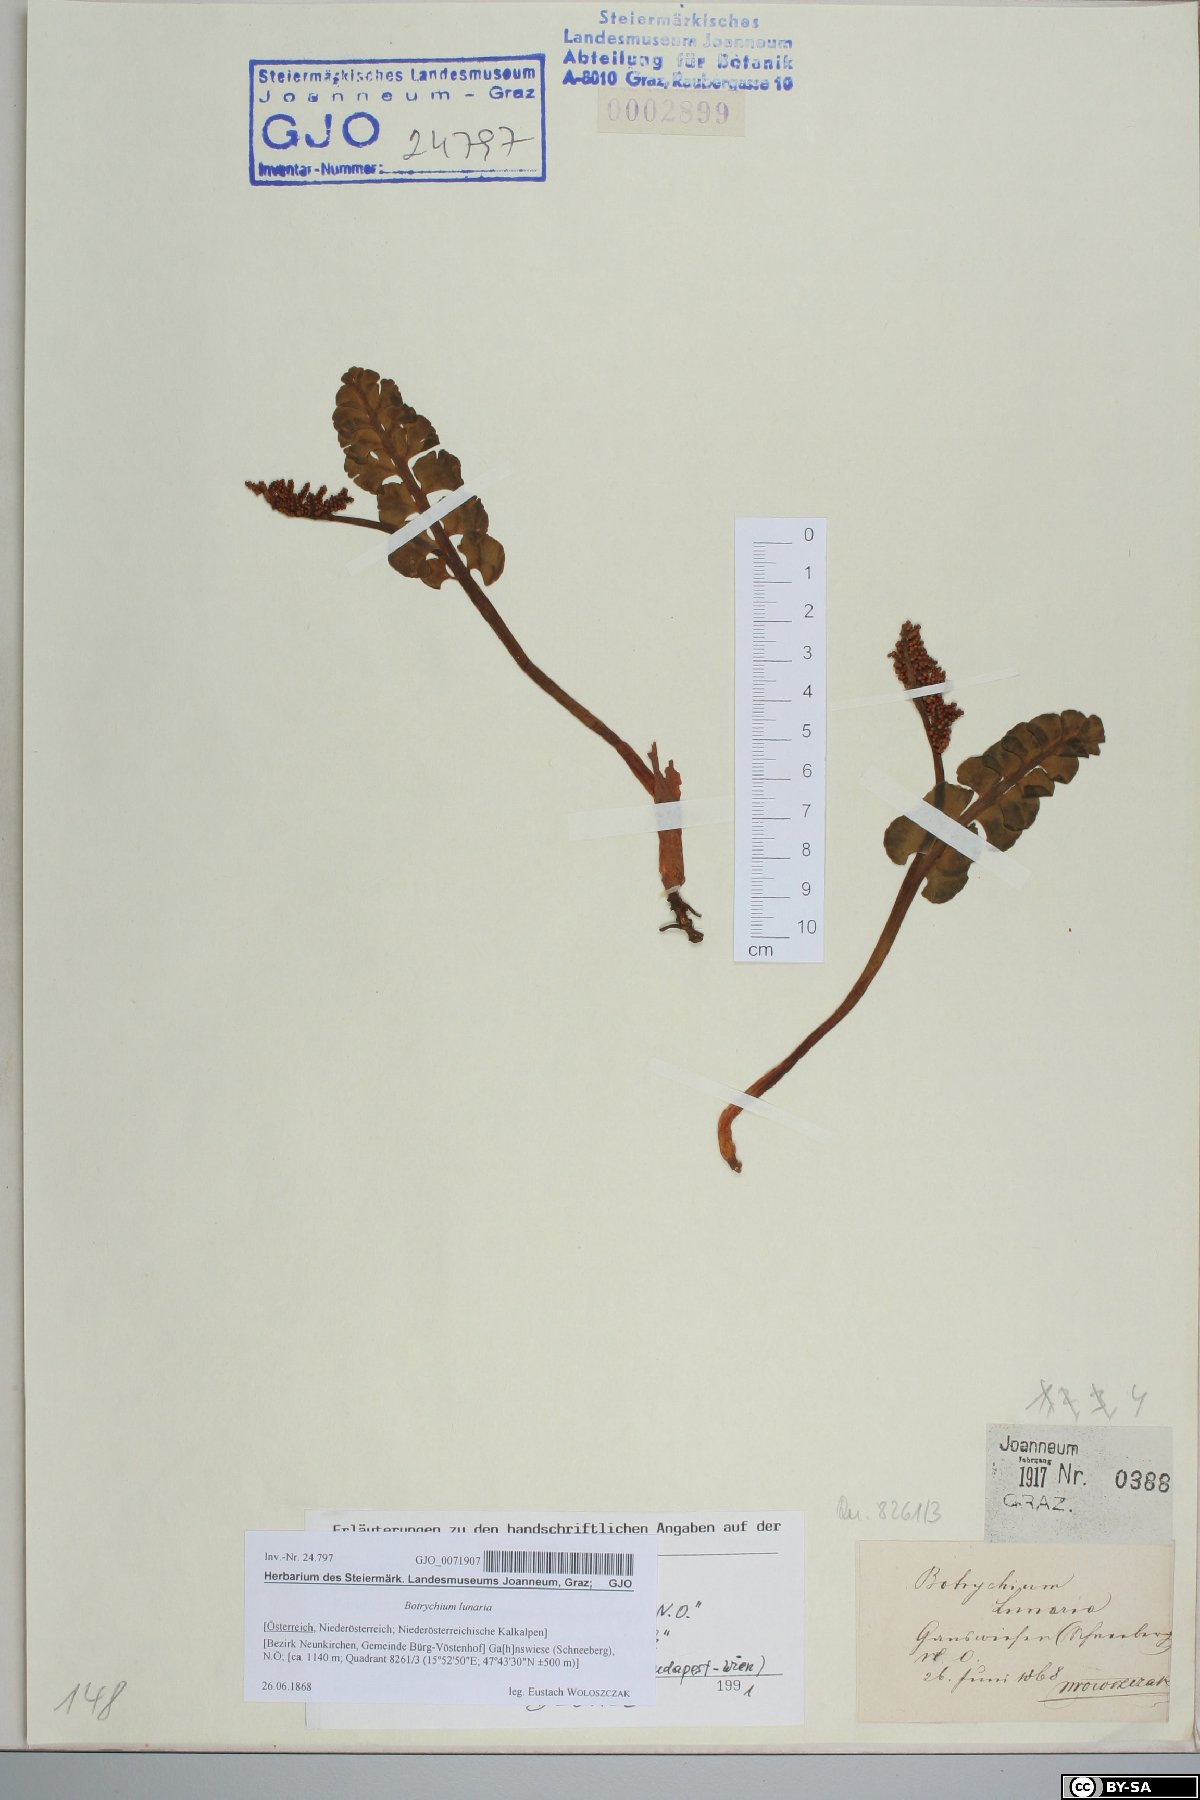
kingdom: Plantae
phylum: Tracheophyta
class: Polypodiopsida
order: Ophioglossales
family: Ophioglossaceae
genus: Botrychium
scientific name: Botrychium lunaria
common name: Moonwort
